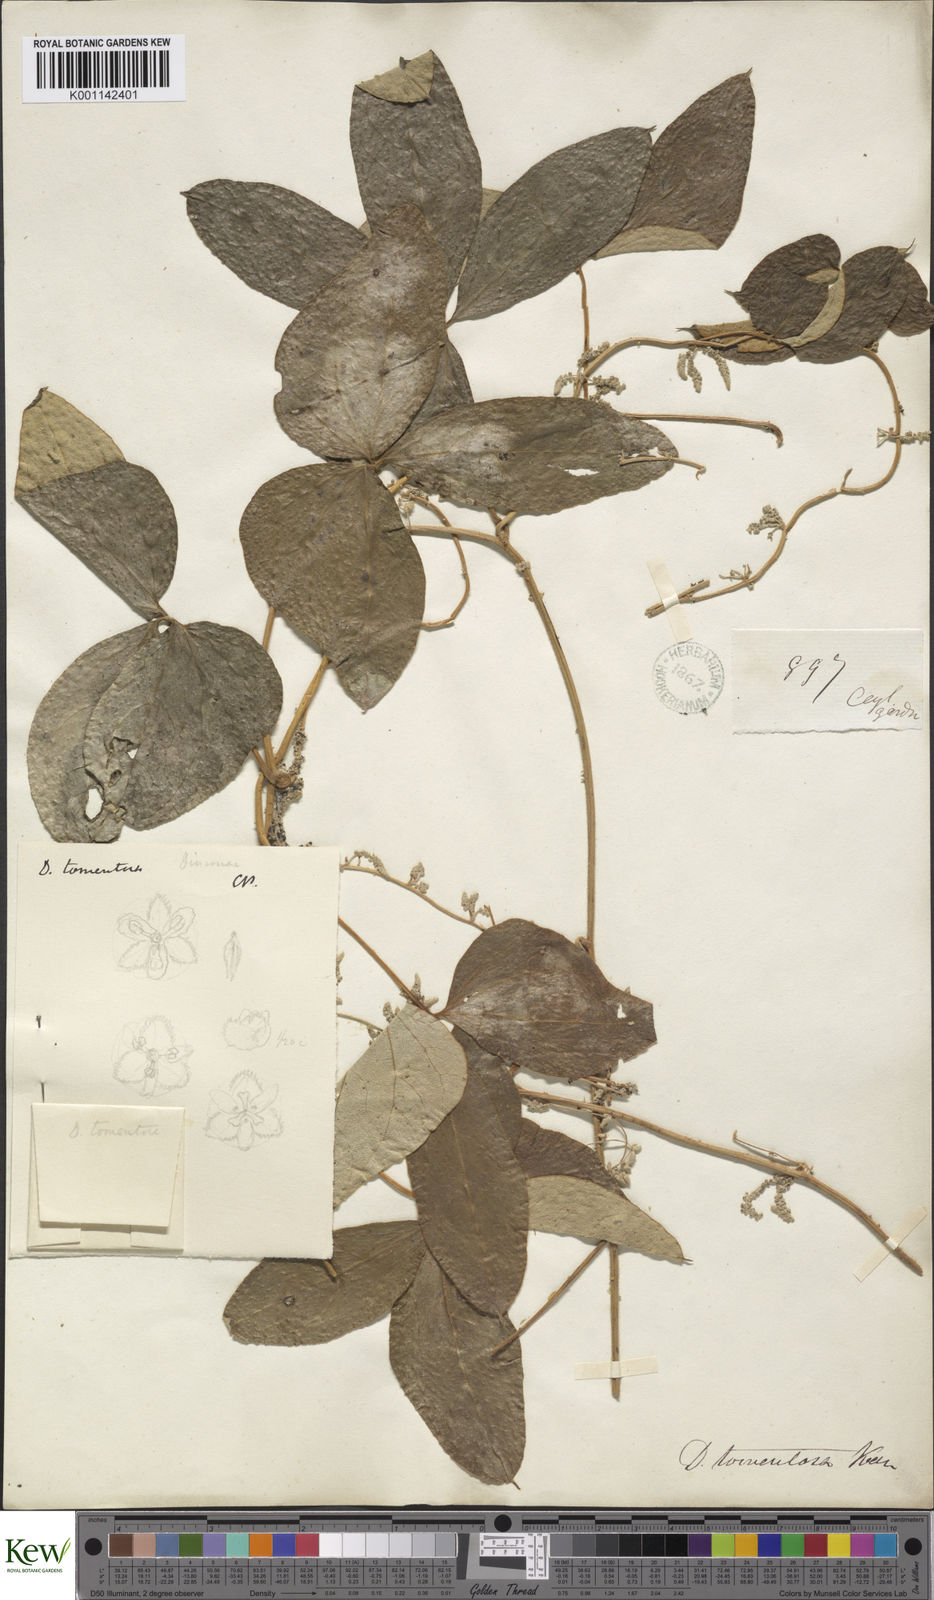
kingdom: Plantae
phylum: Tracheophyta
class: Liliopsida
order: Dioscoreales
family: Dioscoreaceae
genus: Dioscorea
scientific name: Dioscorea
